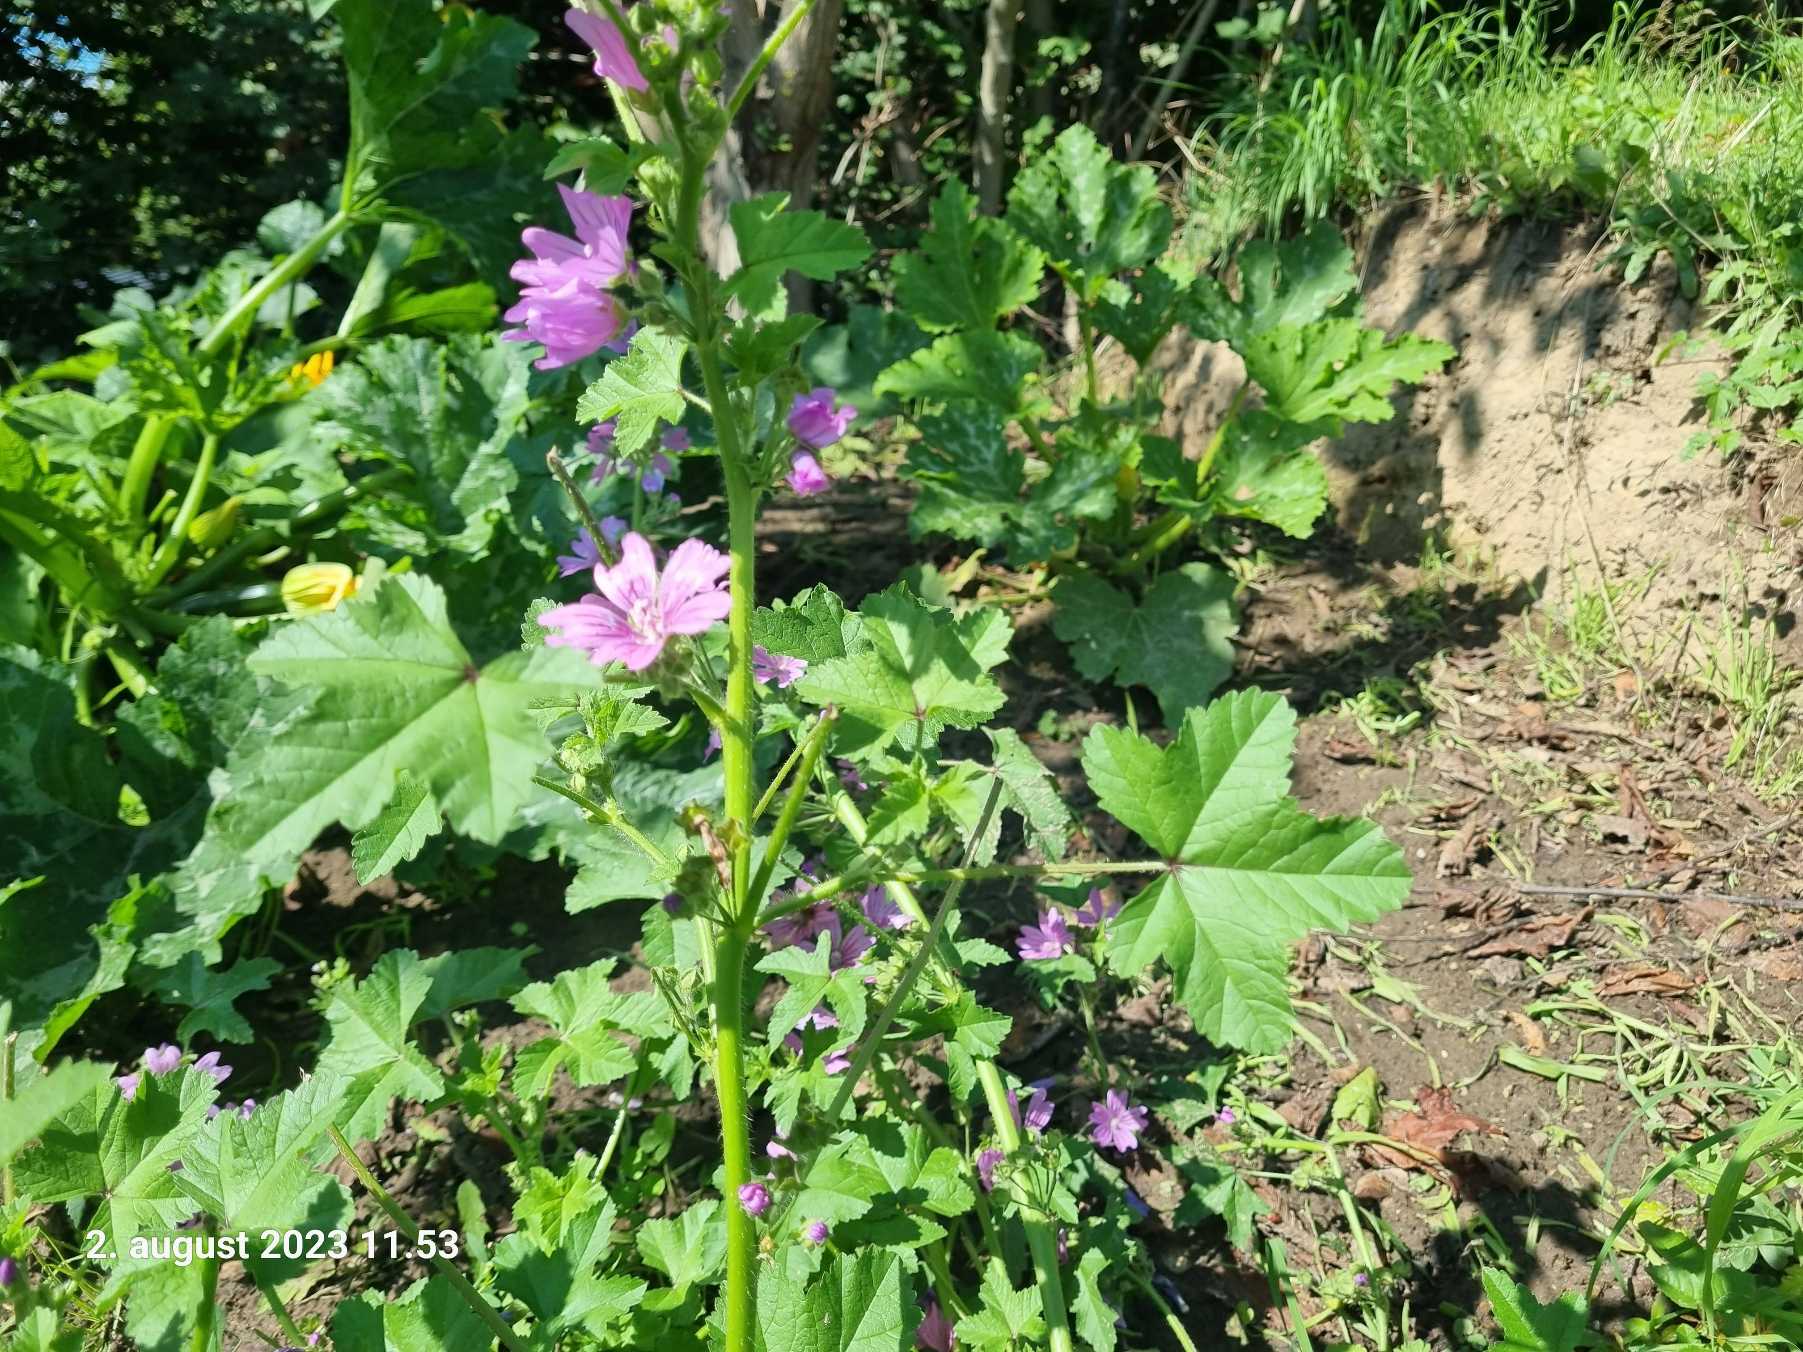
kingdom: Plantae
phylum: Tracheophyta
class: Magnoliopsida
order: Malvales
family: Malvaceae
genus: Malva
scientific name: Malva sylvestris
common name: Almindelig katost
